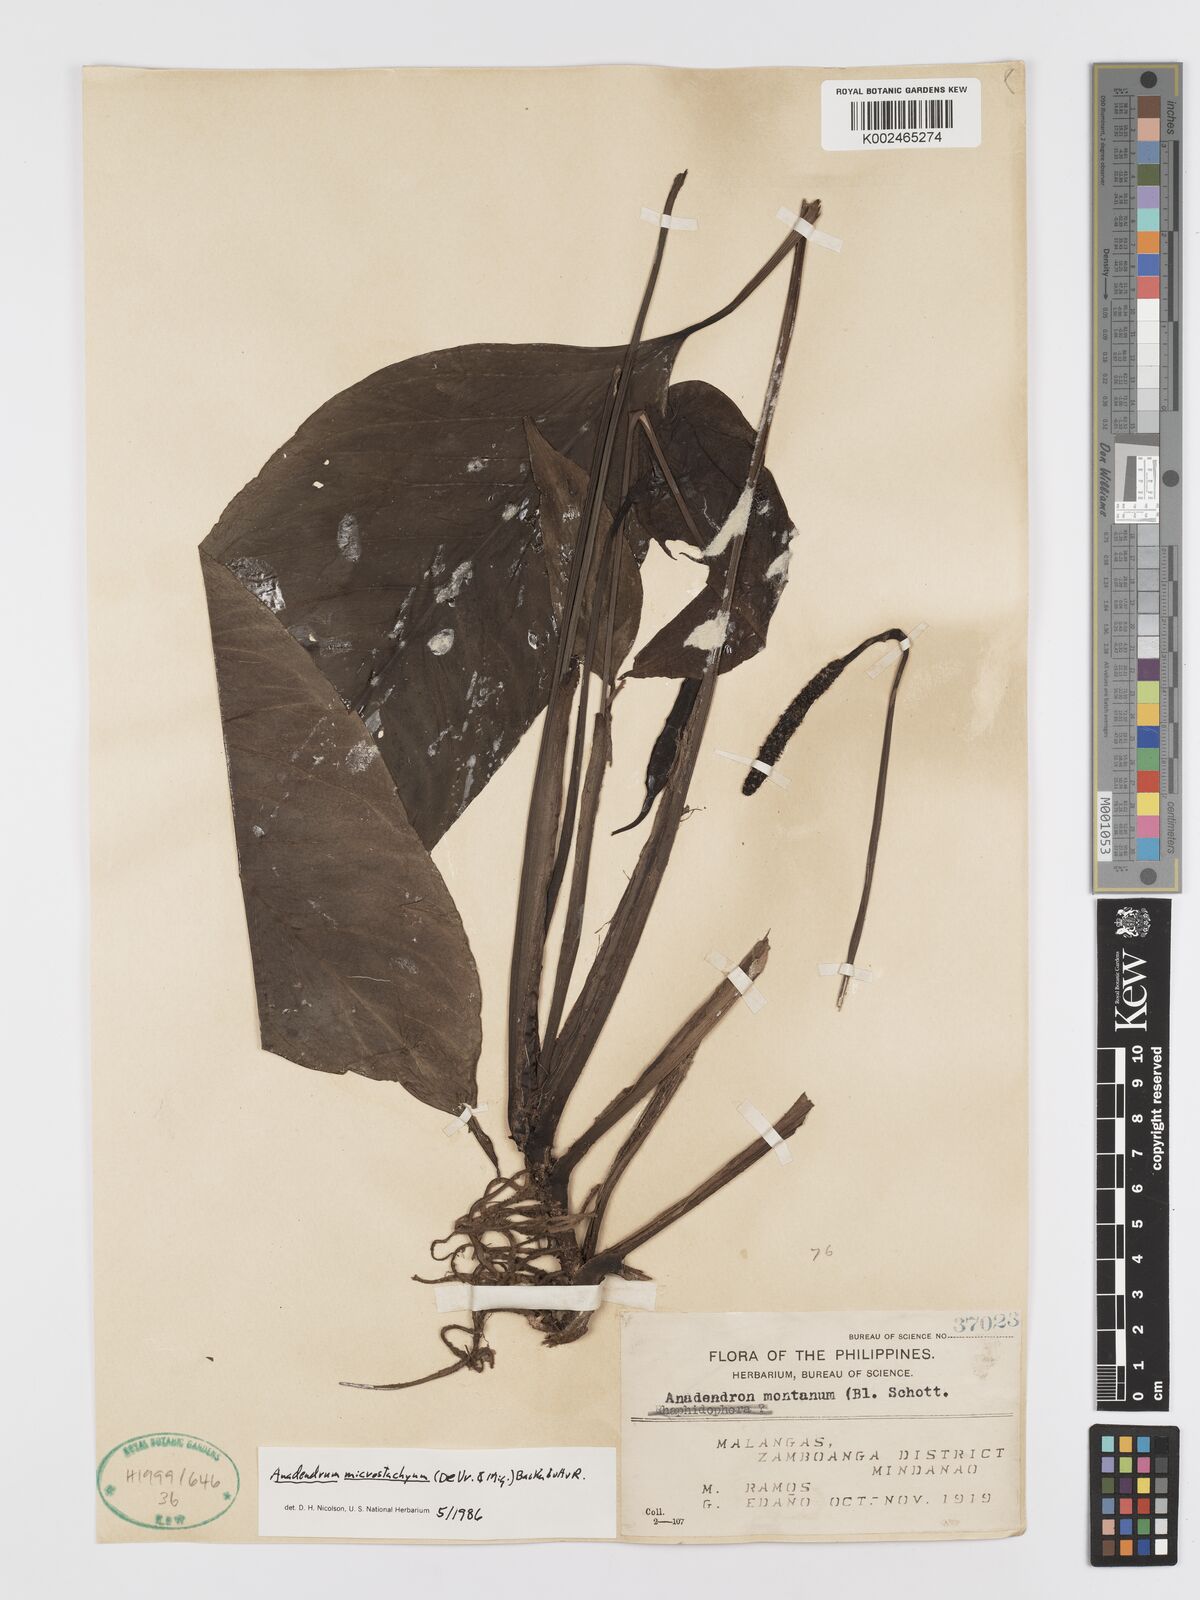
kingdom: Plantae
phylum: Tracheophyta
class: Liliopsida
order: Alismatales
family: Araceae
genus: Anadendrum
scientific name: Anadendrum microstachyum
